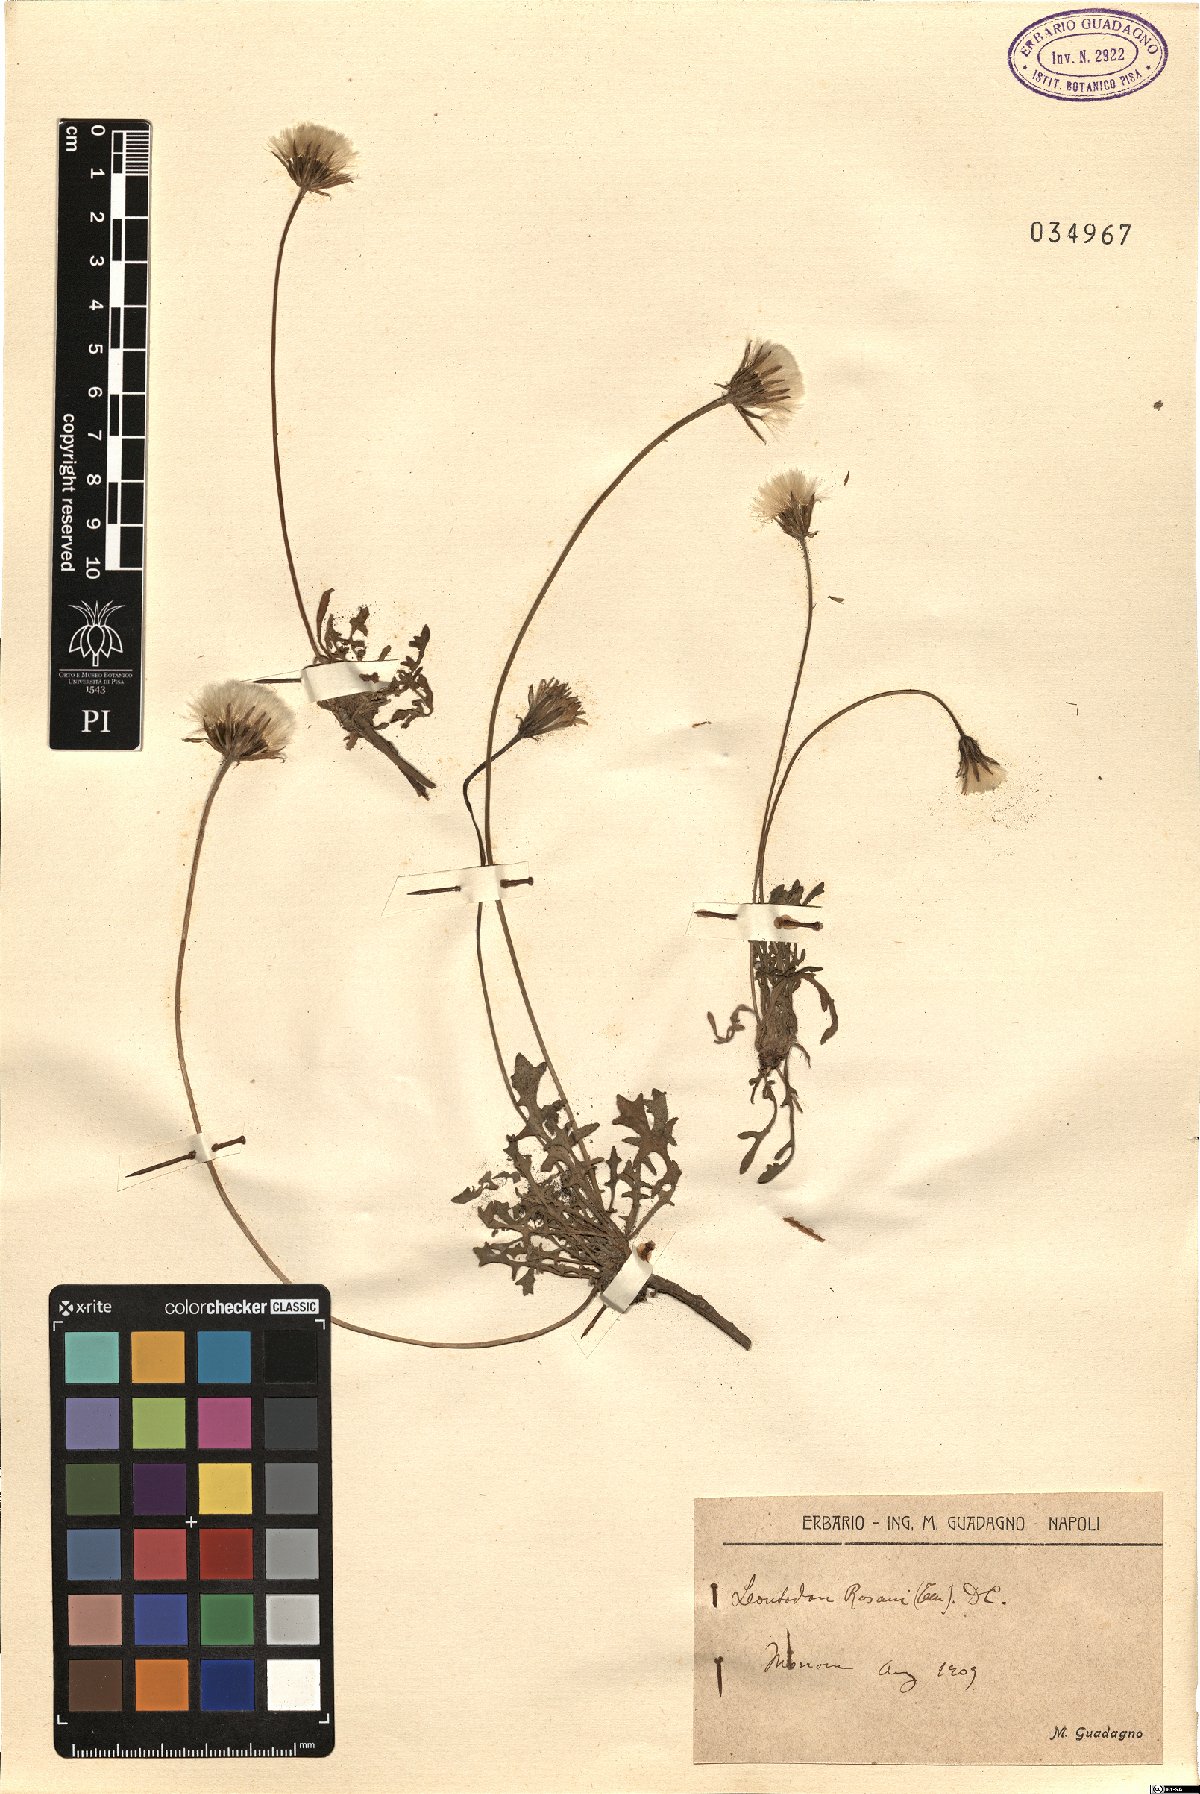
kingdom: Plantae
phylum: Tracheophyta
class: Magnoliopsida
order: Asterales
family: Asteraceae
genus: Leontodon
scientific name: Leontodon rosanoi
